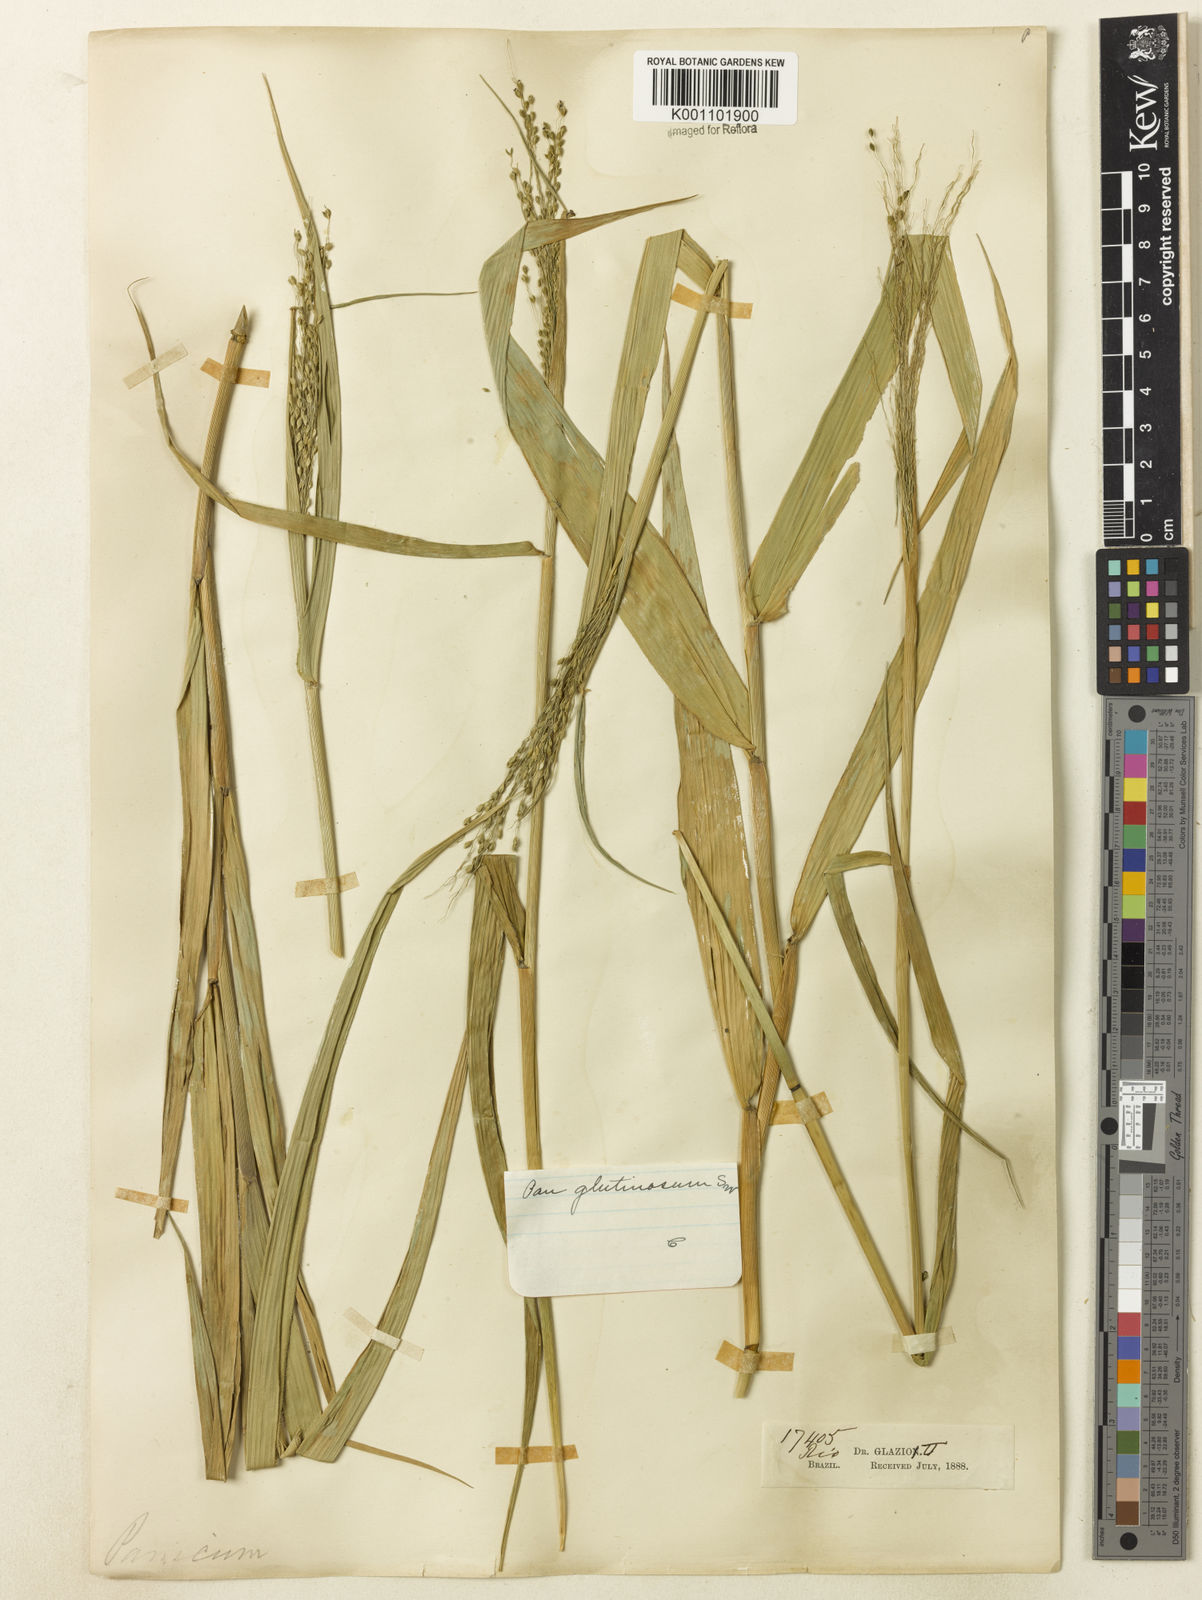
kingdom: Plantae
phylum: Tracheophyta
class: Liliopsida
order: Poales
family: Poaceae
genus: Homolepis
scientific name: Homolepis glutinosa
